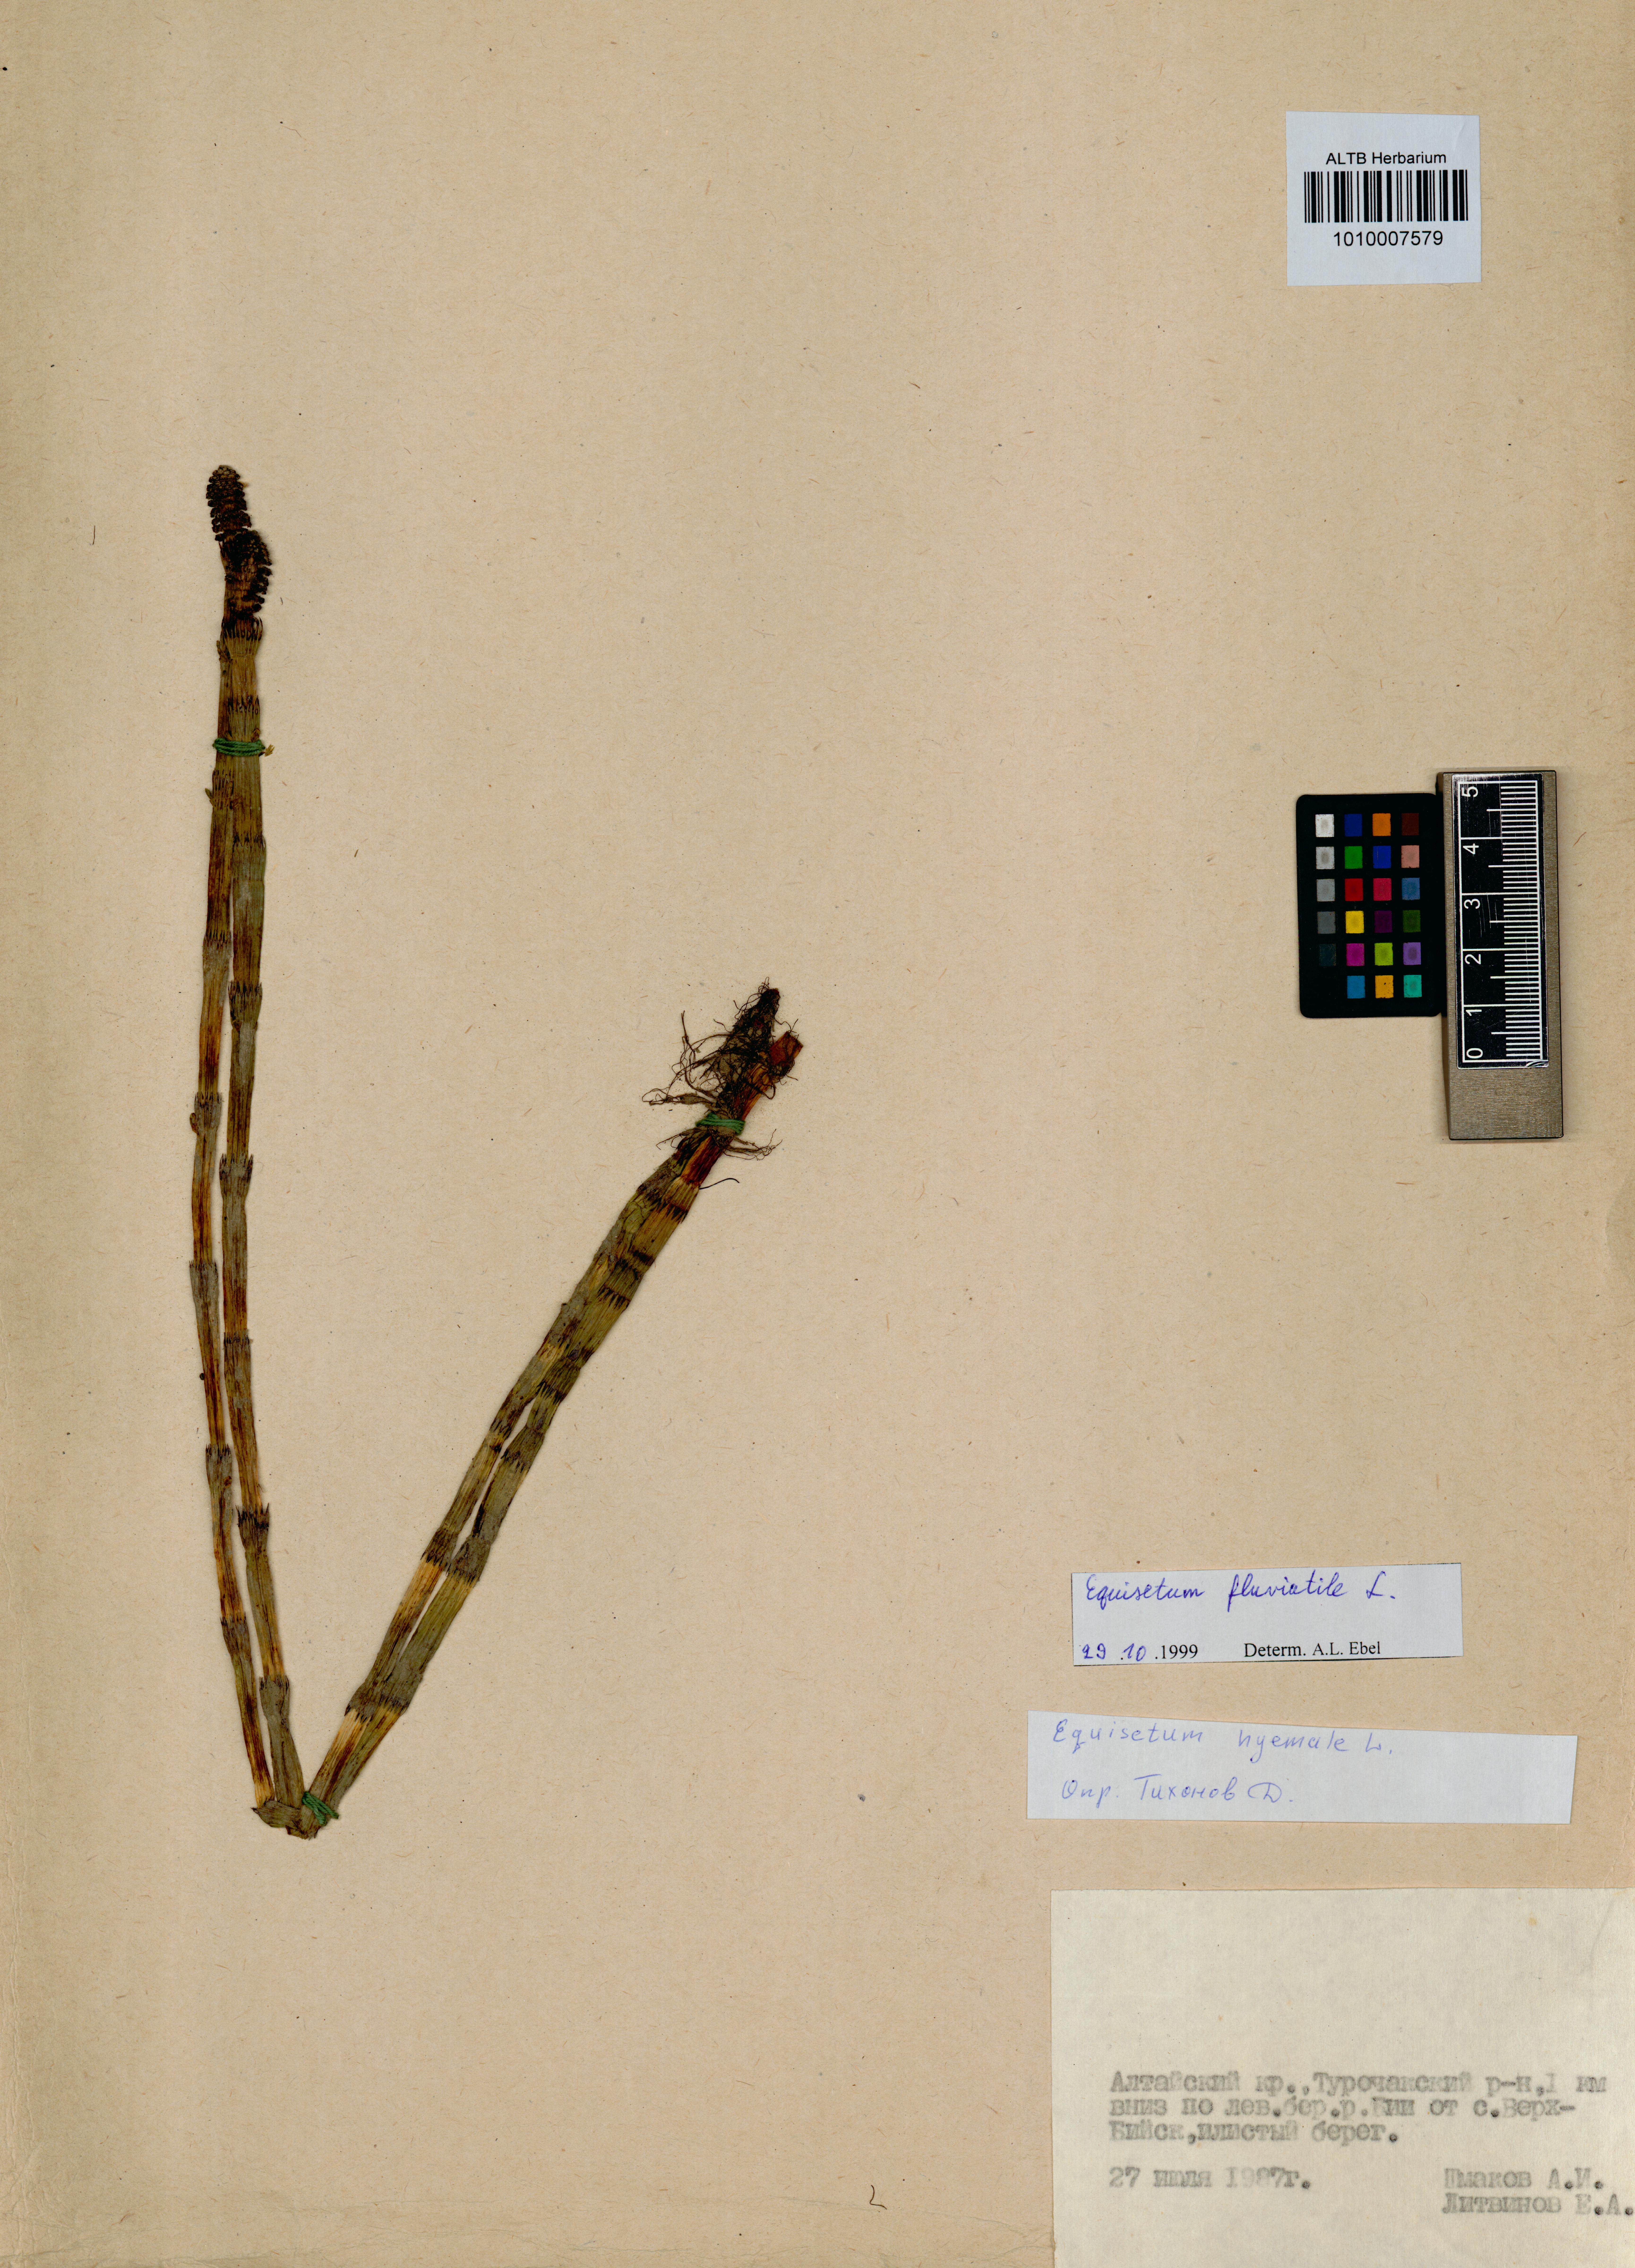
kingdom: Plantae
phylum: Tracheophyta
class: Polypodiopsida
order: Equisetales
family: Equisetaceae
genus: Equisetum
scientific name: Equisetum fluviatile
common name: Water horsetail
